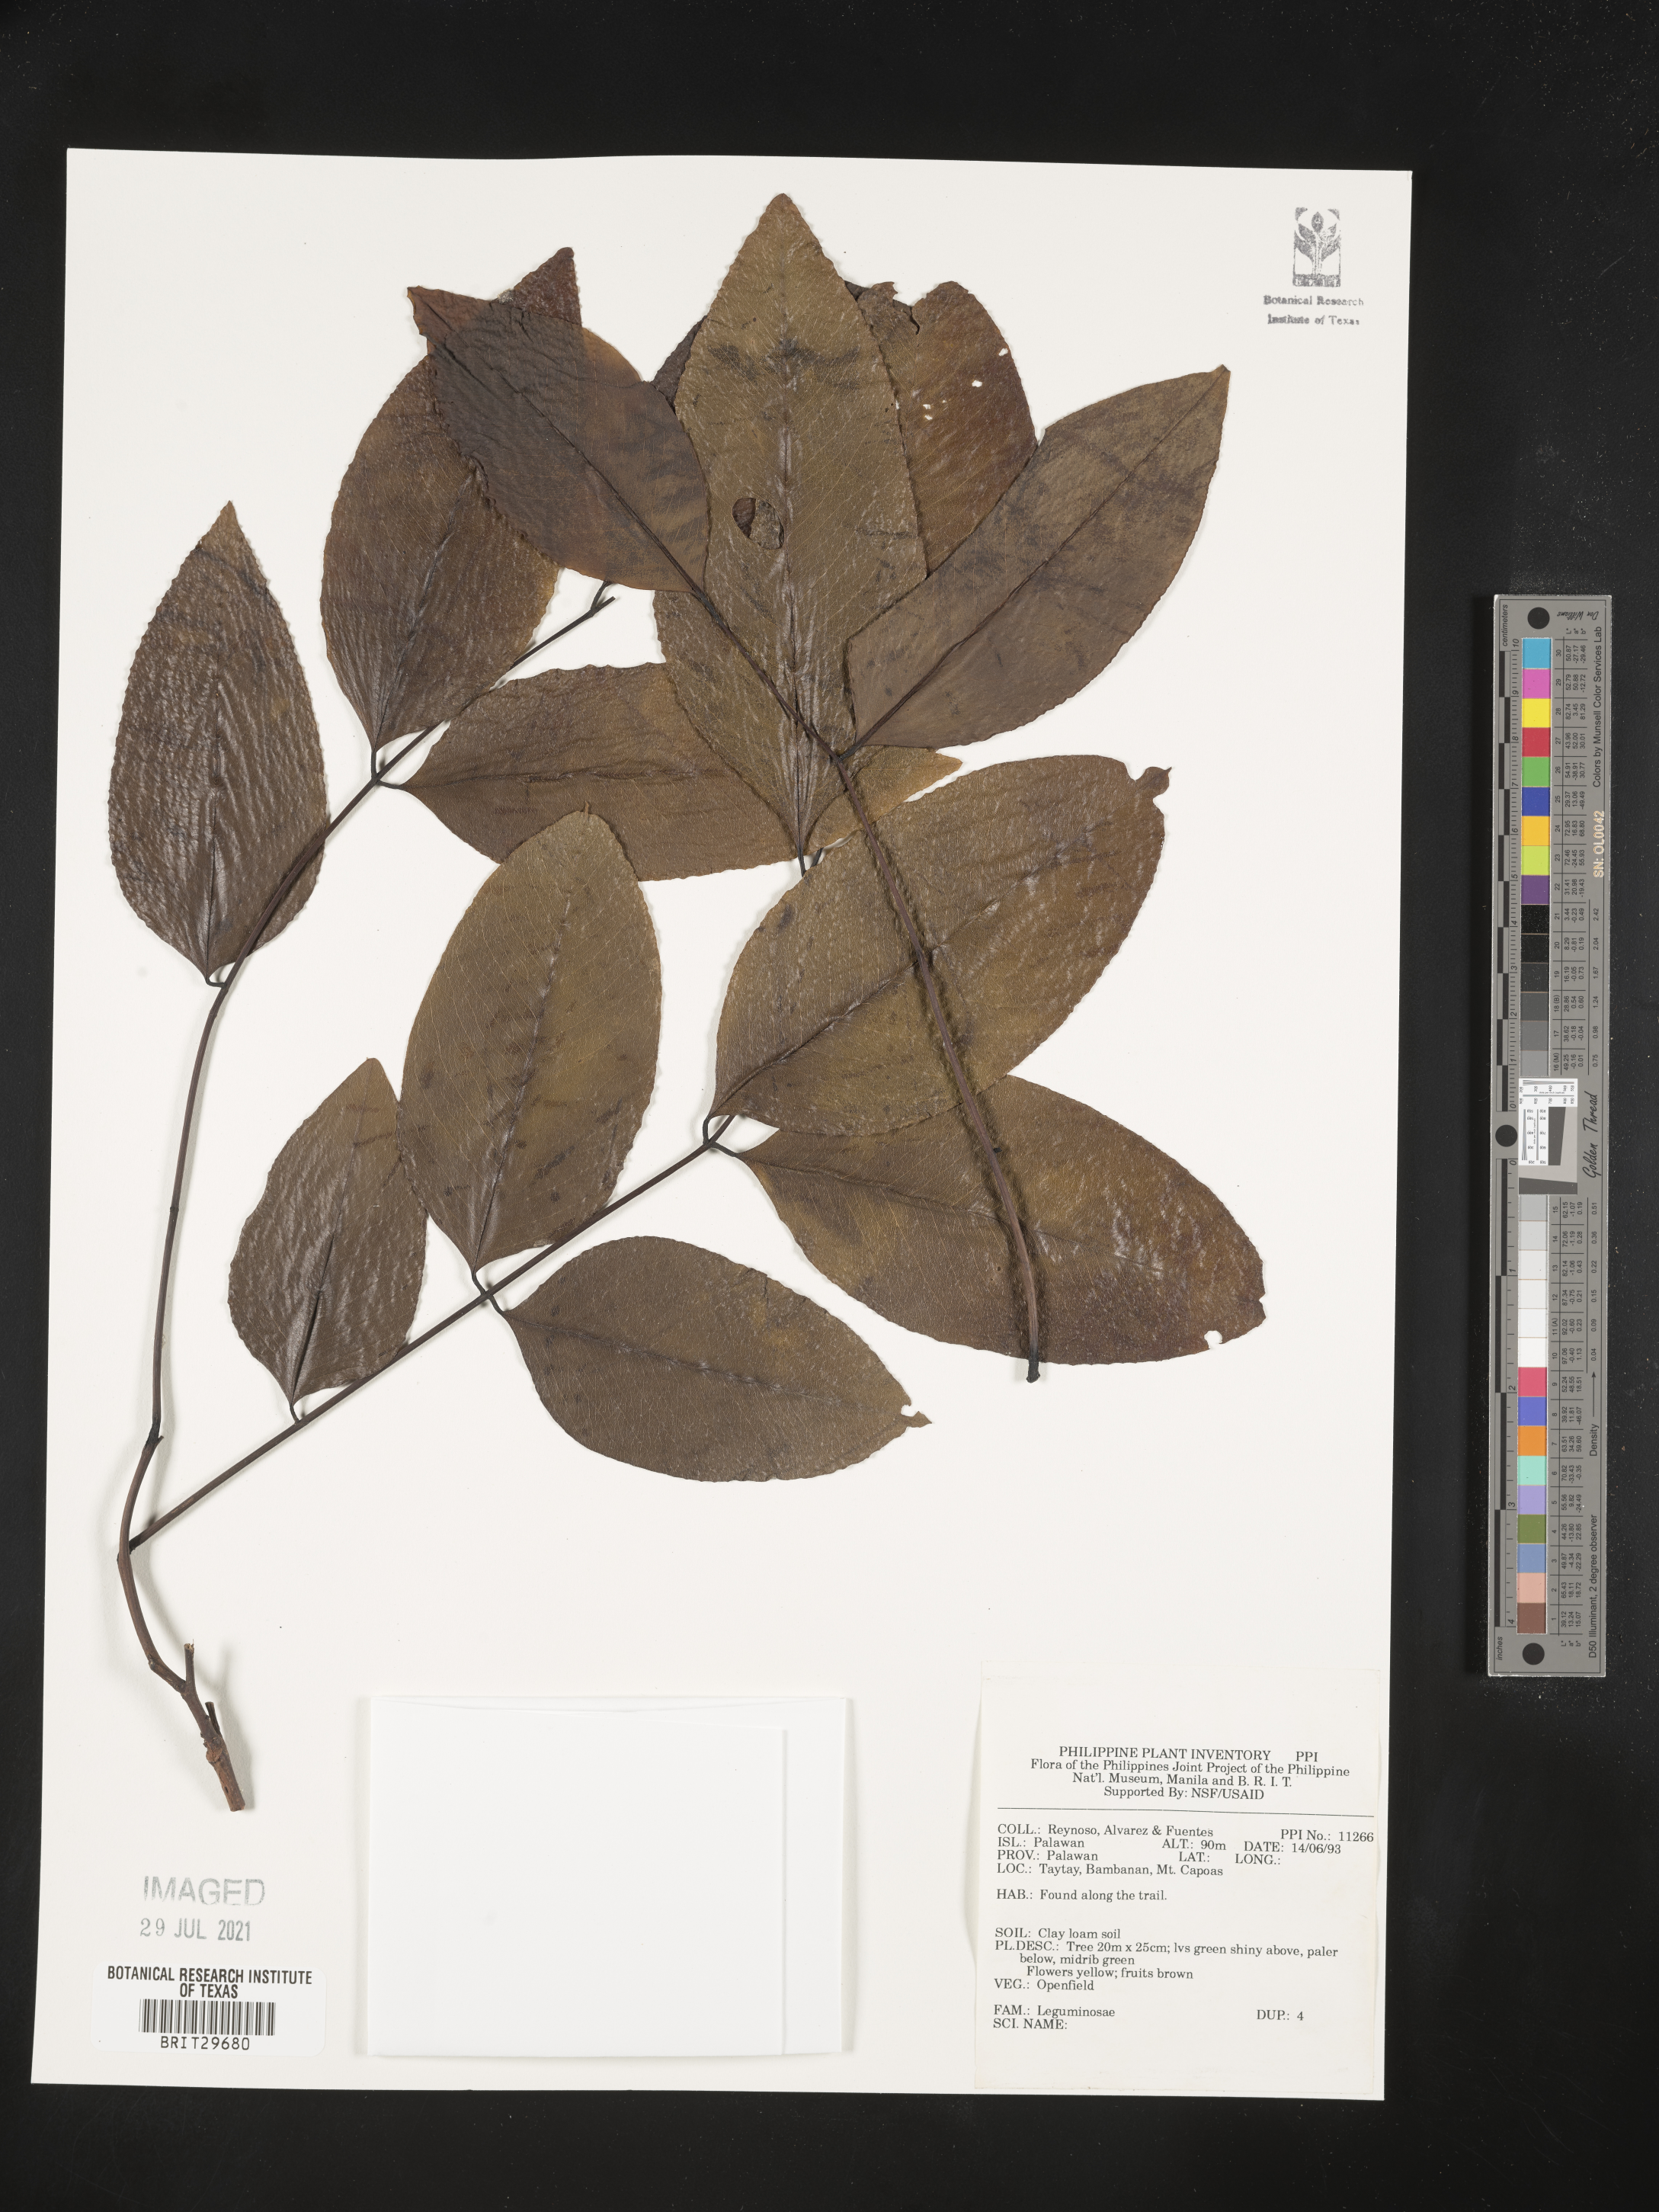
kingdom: Plantae
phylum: Tracheophyta
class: Magnoliopsida
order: Fabales
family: Fabaceae
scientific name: Fabaceae
